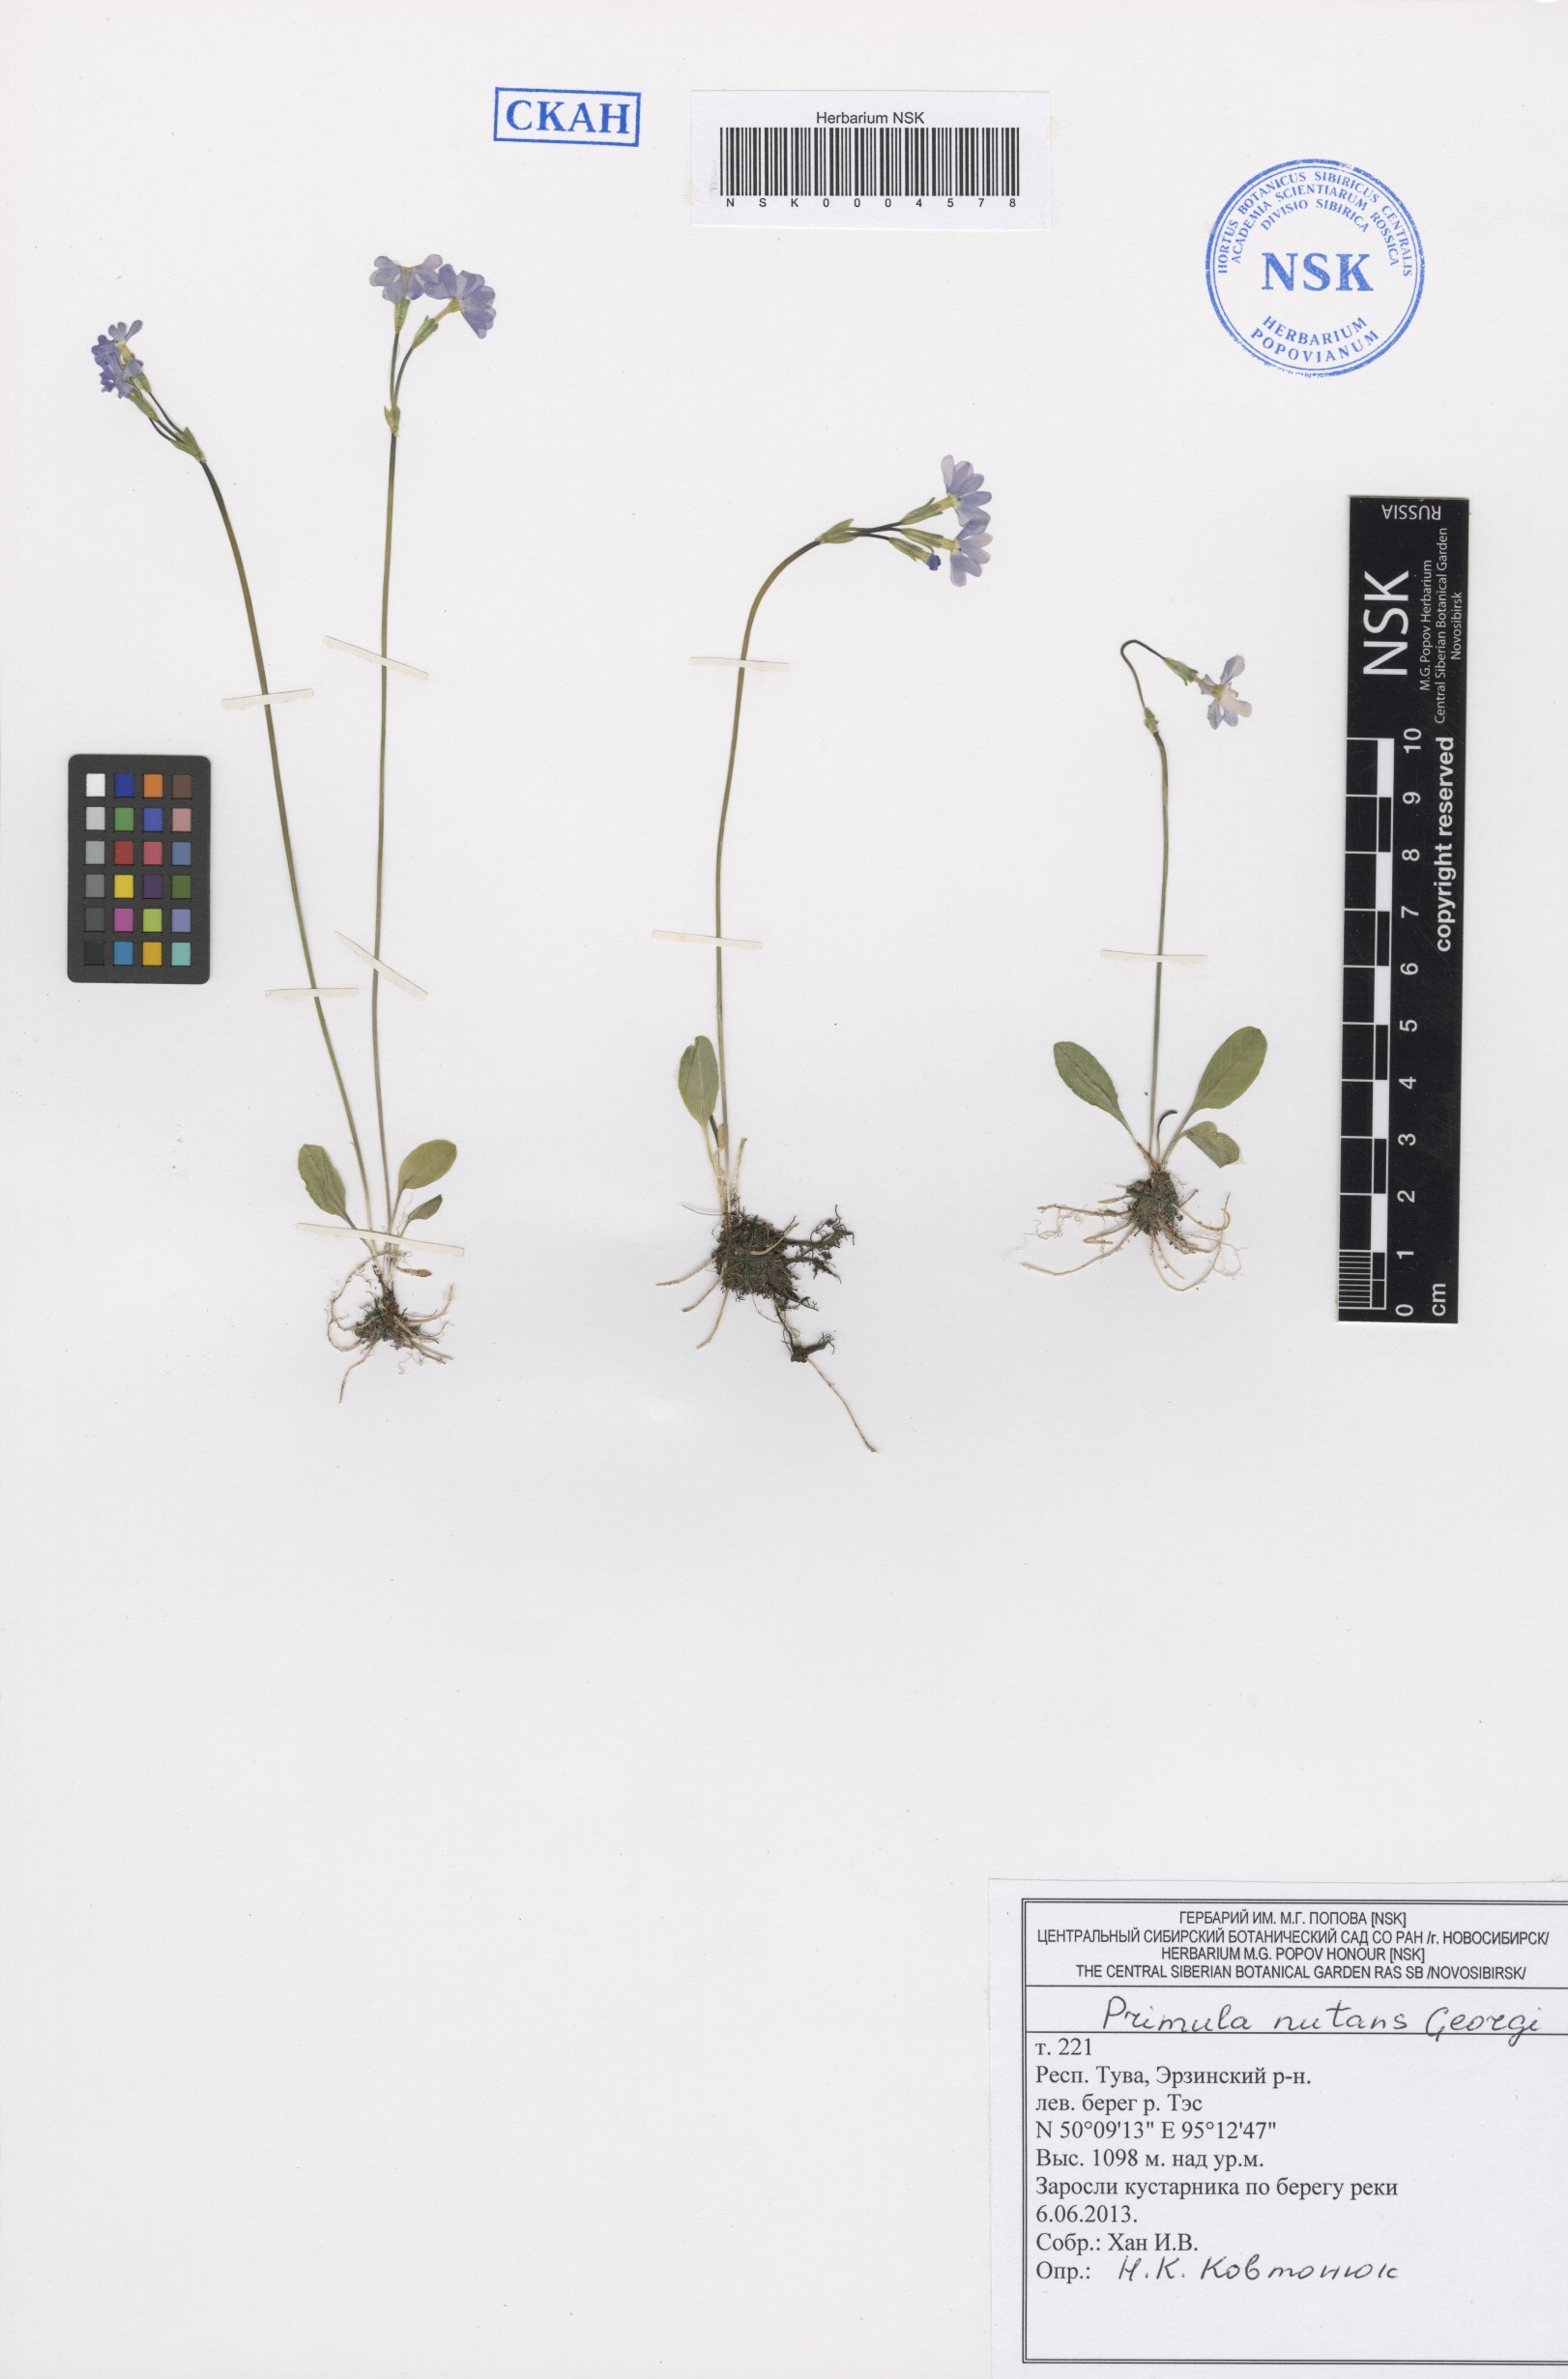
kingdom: Plantae
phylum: Tracheophyta
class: Magnoliopsida
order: Ericales
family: Primulaceae
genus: Primula
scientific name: Primula nutans
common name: Siberian primrose
